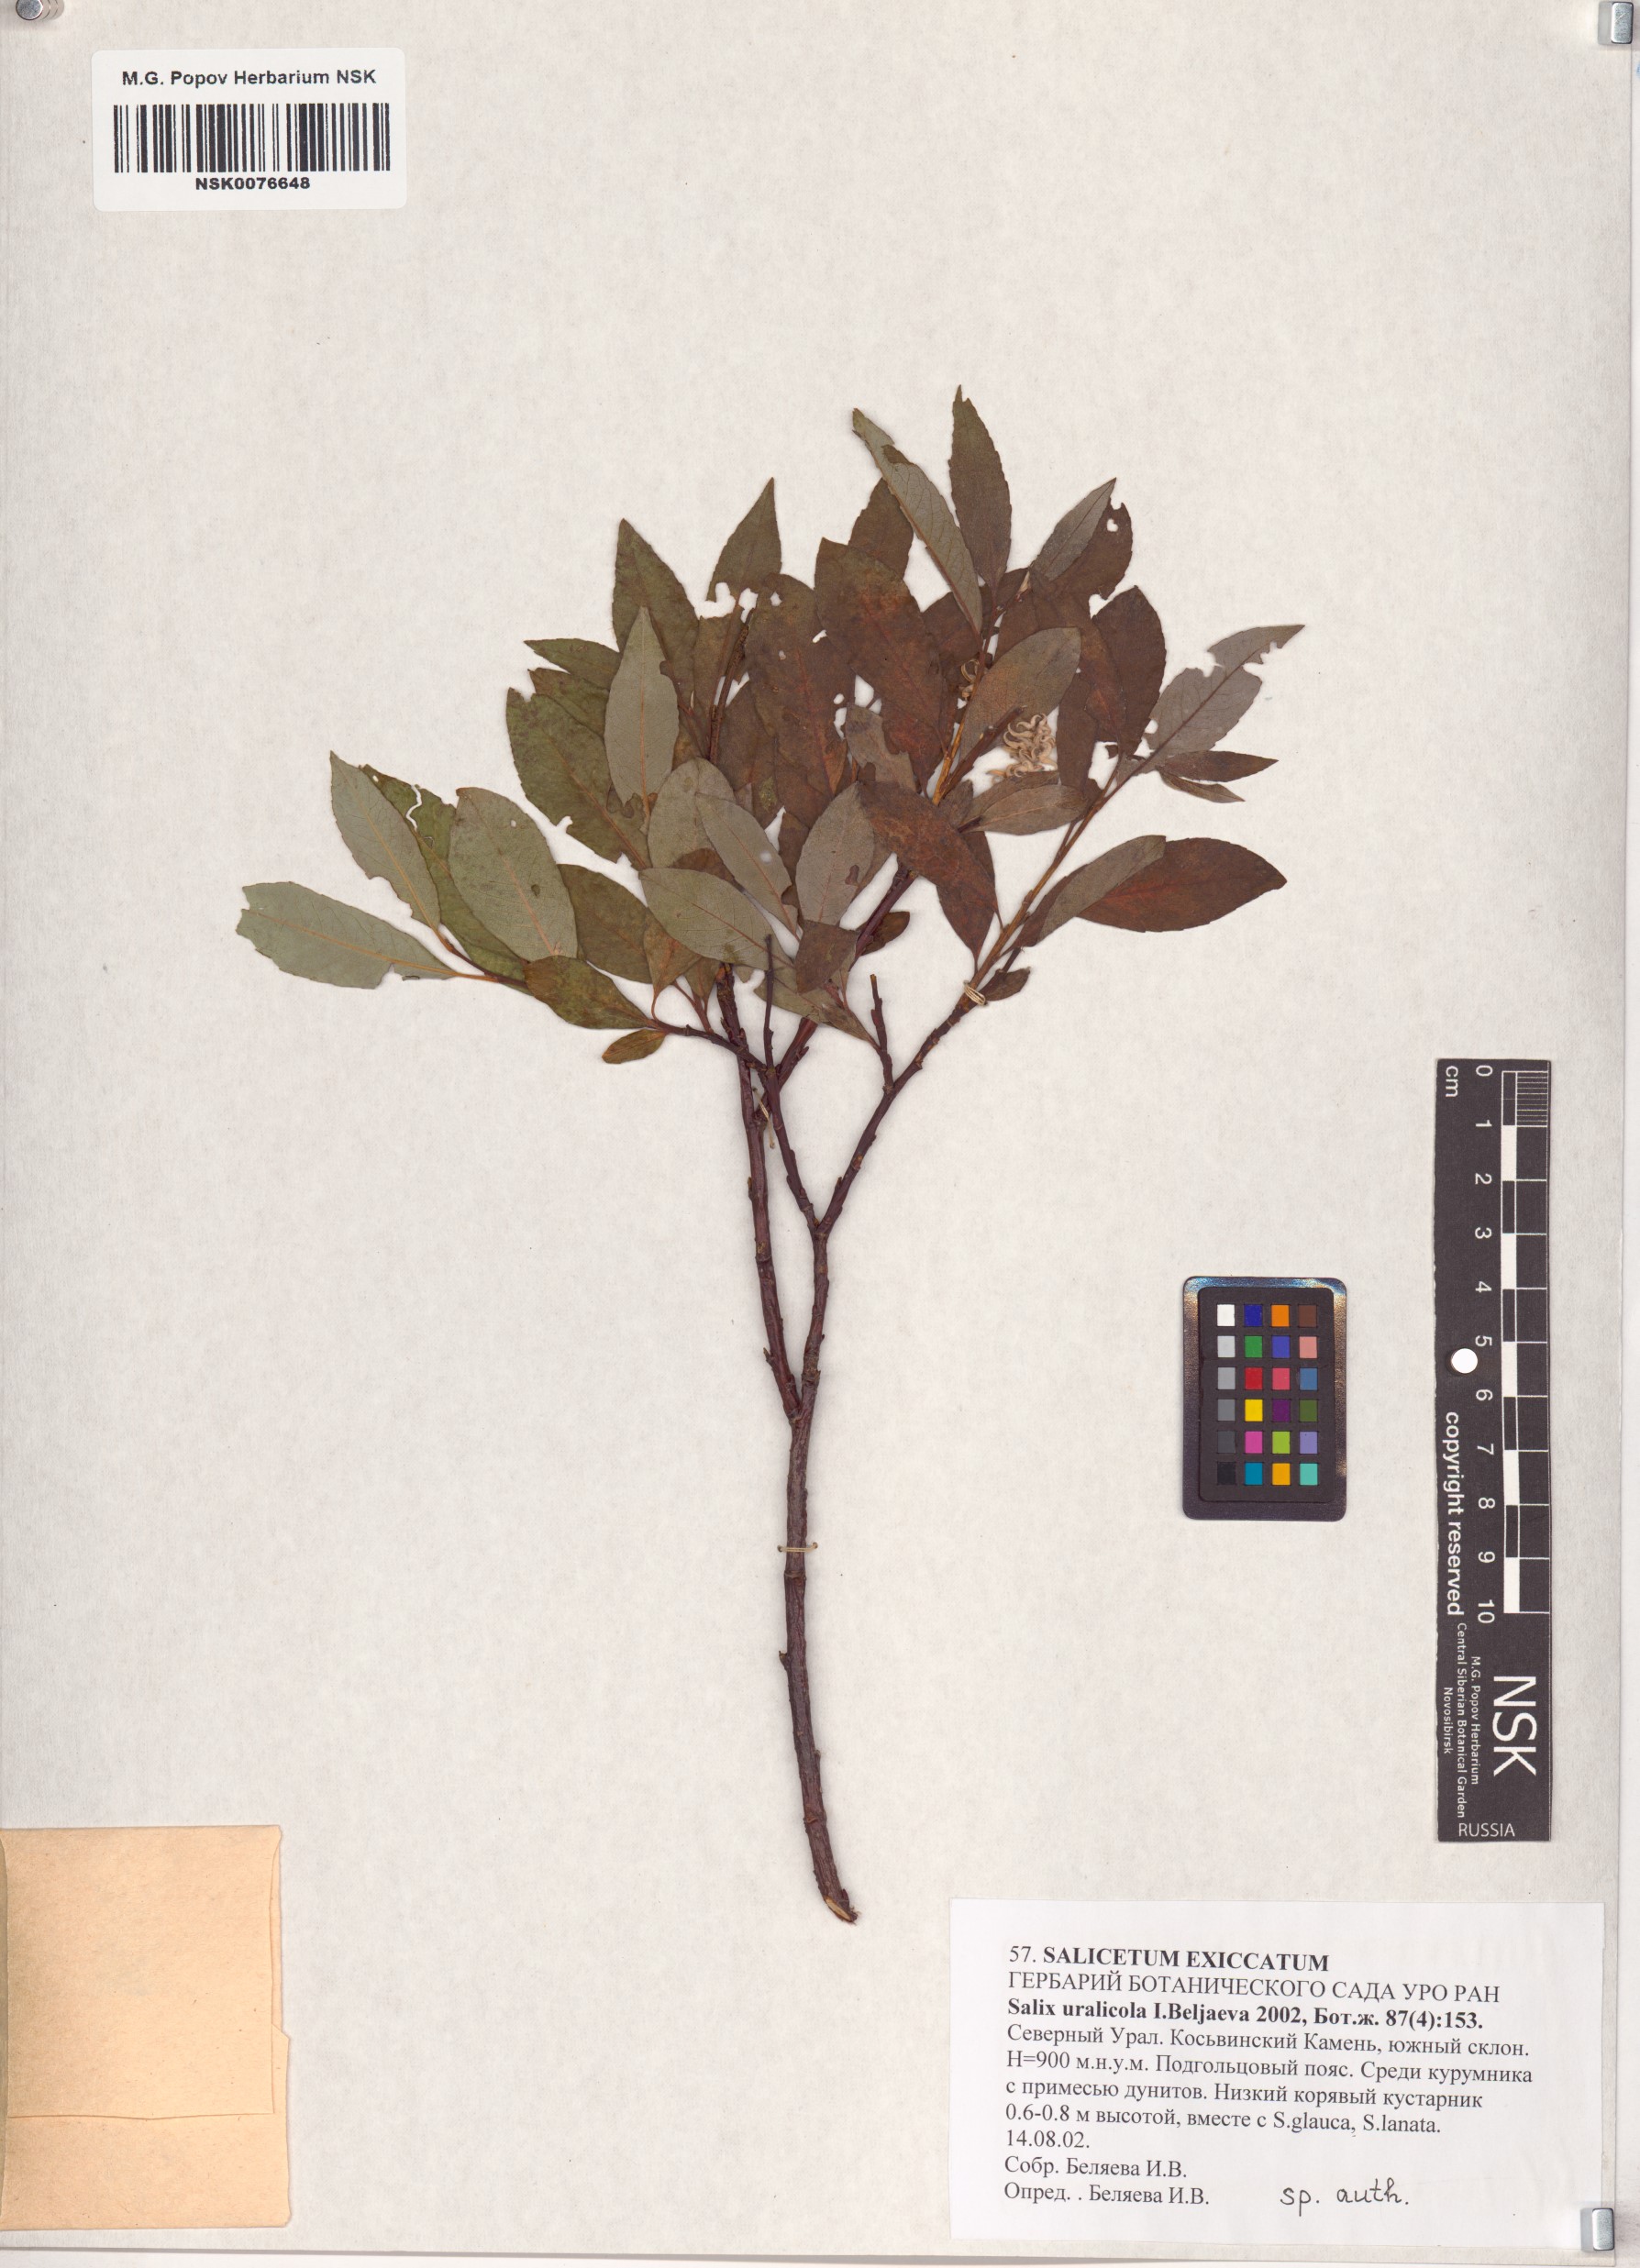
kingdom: Plantae
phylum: Tracheophyta
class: Magnoliopsida
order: Malpighiales
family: Salicaceae
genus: Salix
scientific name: Salix uralicola
